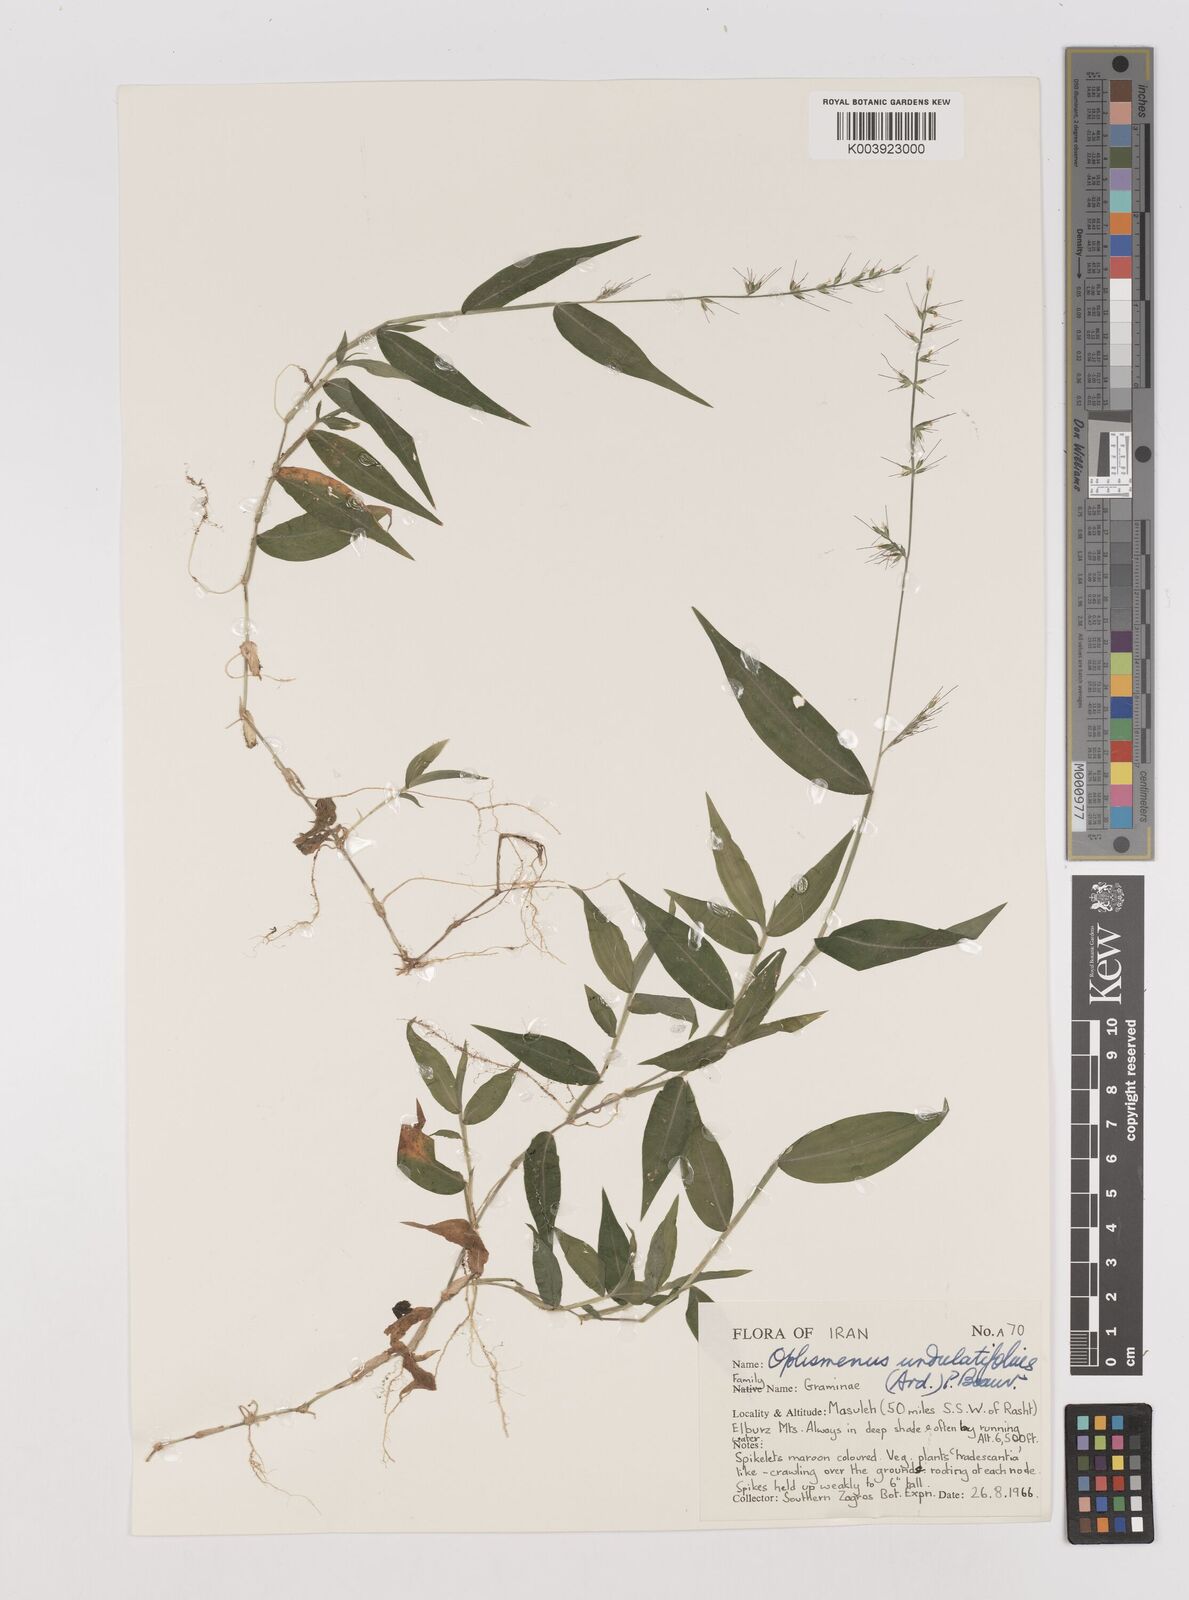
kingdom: Plantae
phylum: Tracheophyta
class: Liliopsida
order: Poales
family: Poaceae
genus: Oplismenus
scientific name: Oplismenus undulatifolius
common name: Wavyleaf basketgrass
